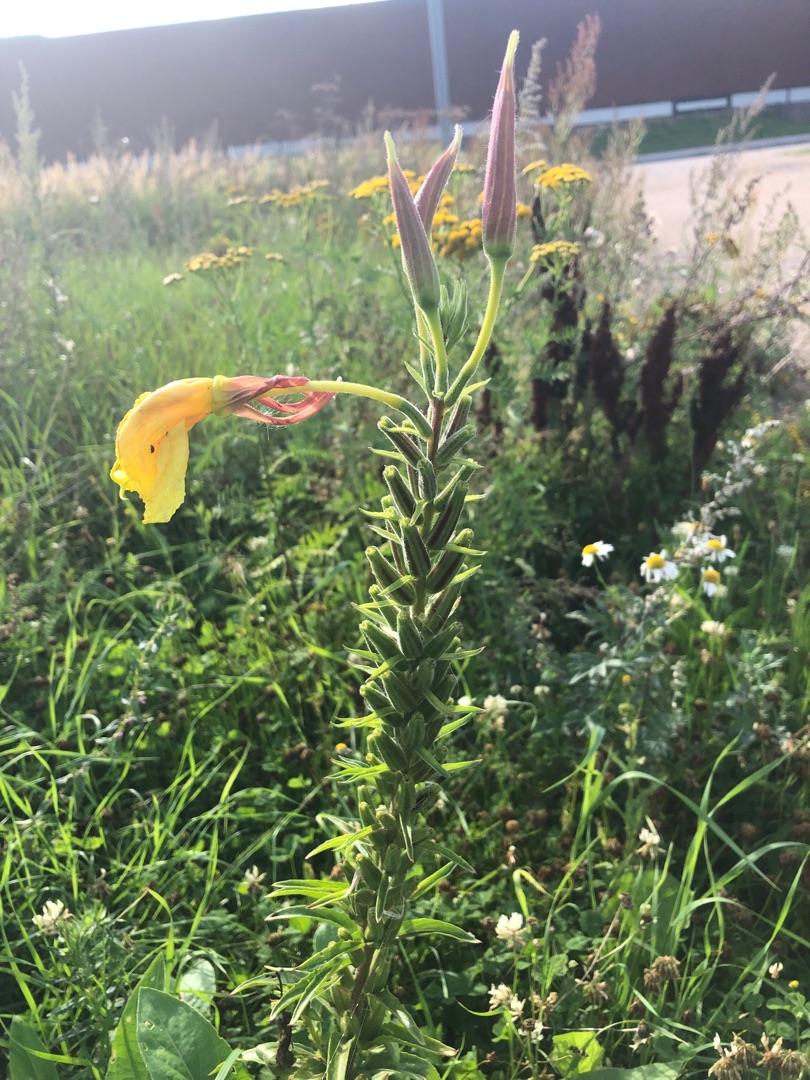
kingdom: Plantae
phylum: Tracheophyta
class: Magnoliopsida
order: Myrtales
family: Onagraceae
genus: Oenothera
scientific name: Oenothera glazioviana
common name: Kæmpe-natlys
